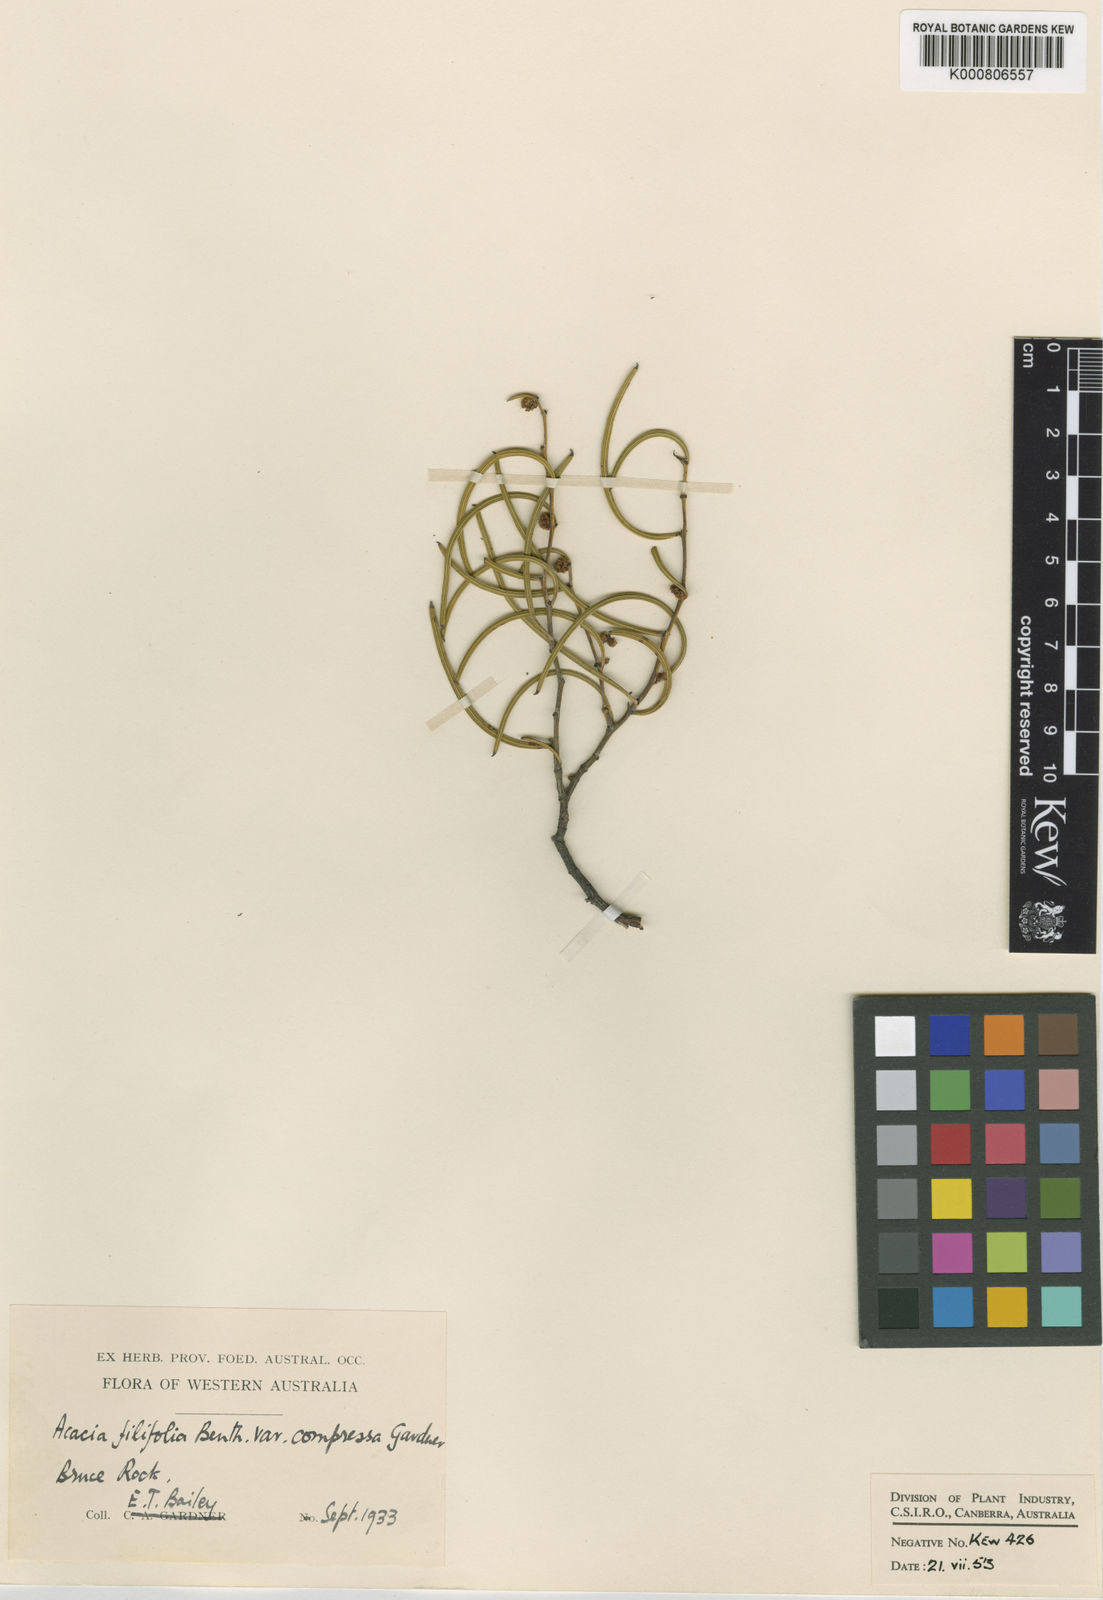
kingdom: Plantae
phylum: Tracheophyta
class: Magnoliopsida
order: Fabales
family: Fabaceae
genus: Acacia
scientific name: Acacia ephedroides
